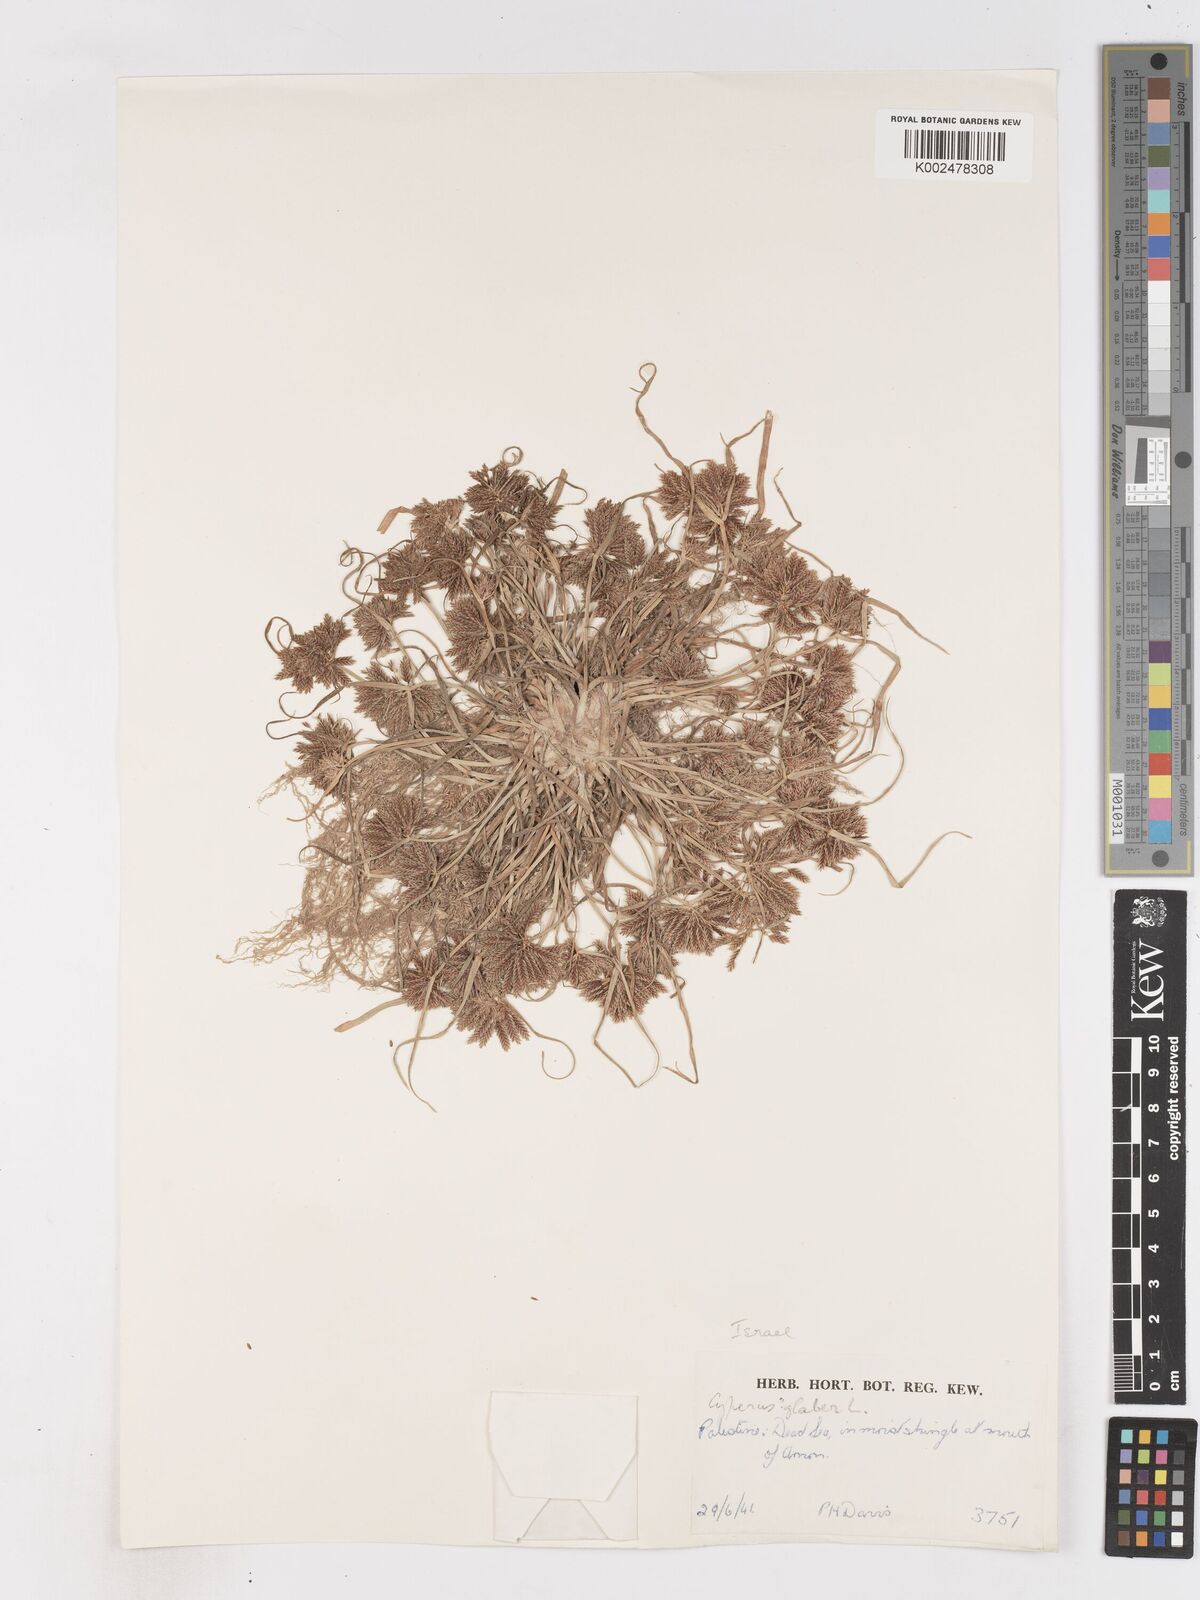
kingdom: Plantae
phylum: Tracheophyta
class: Liliopsida
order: Poales
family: Cyperaceae
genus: Cyperus
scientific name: Cyperus glaber
